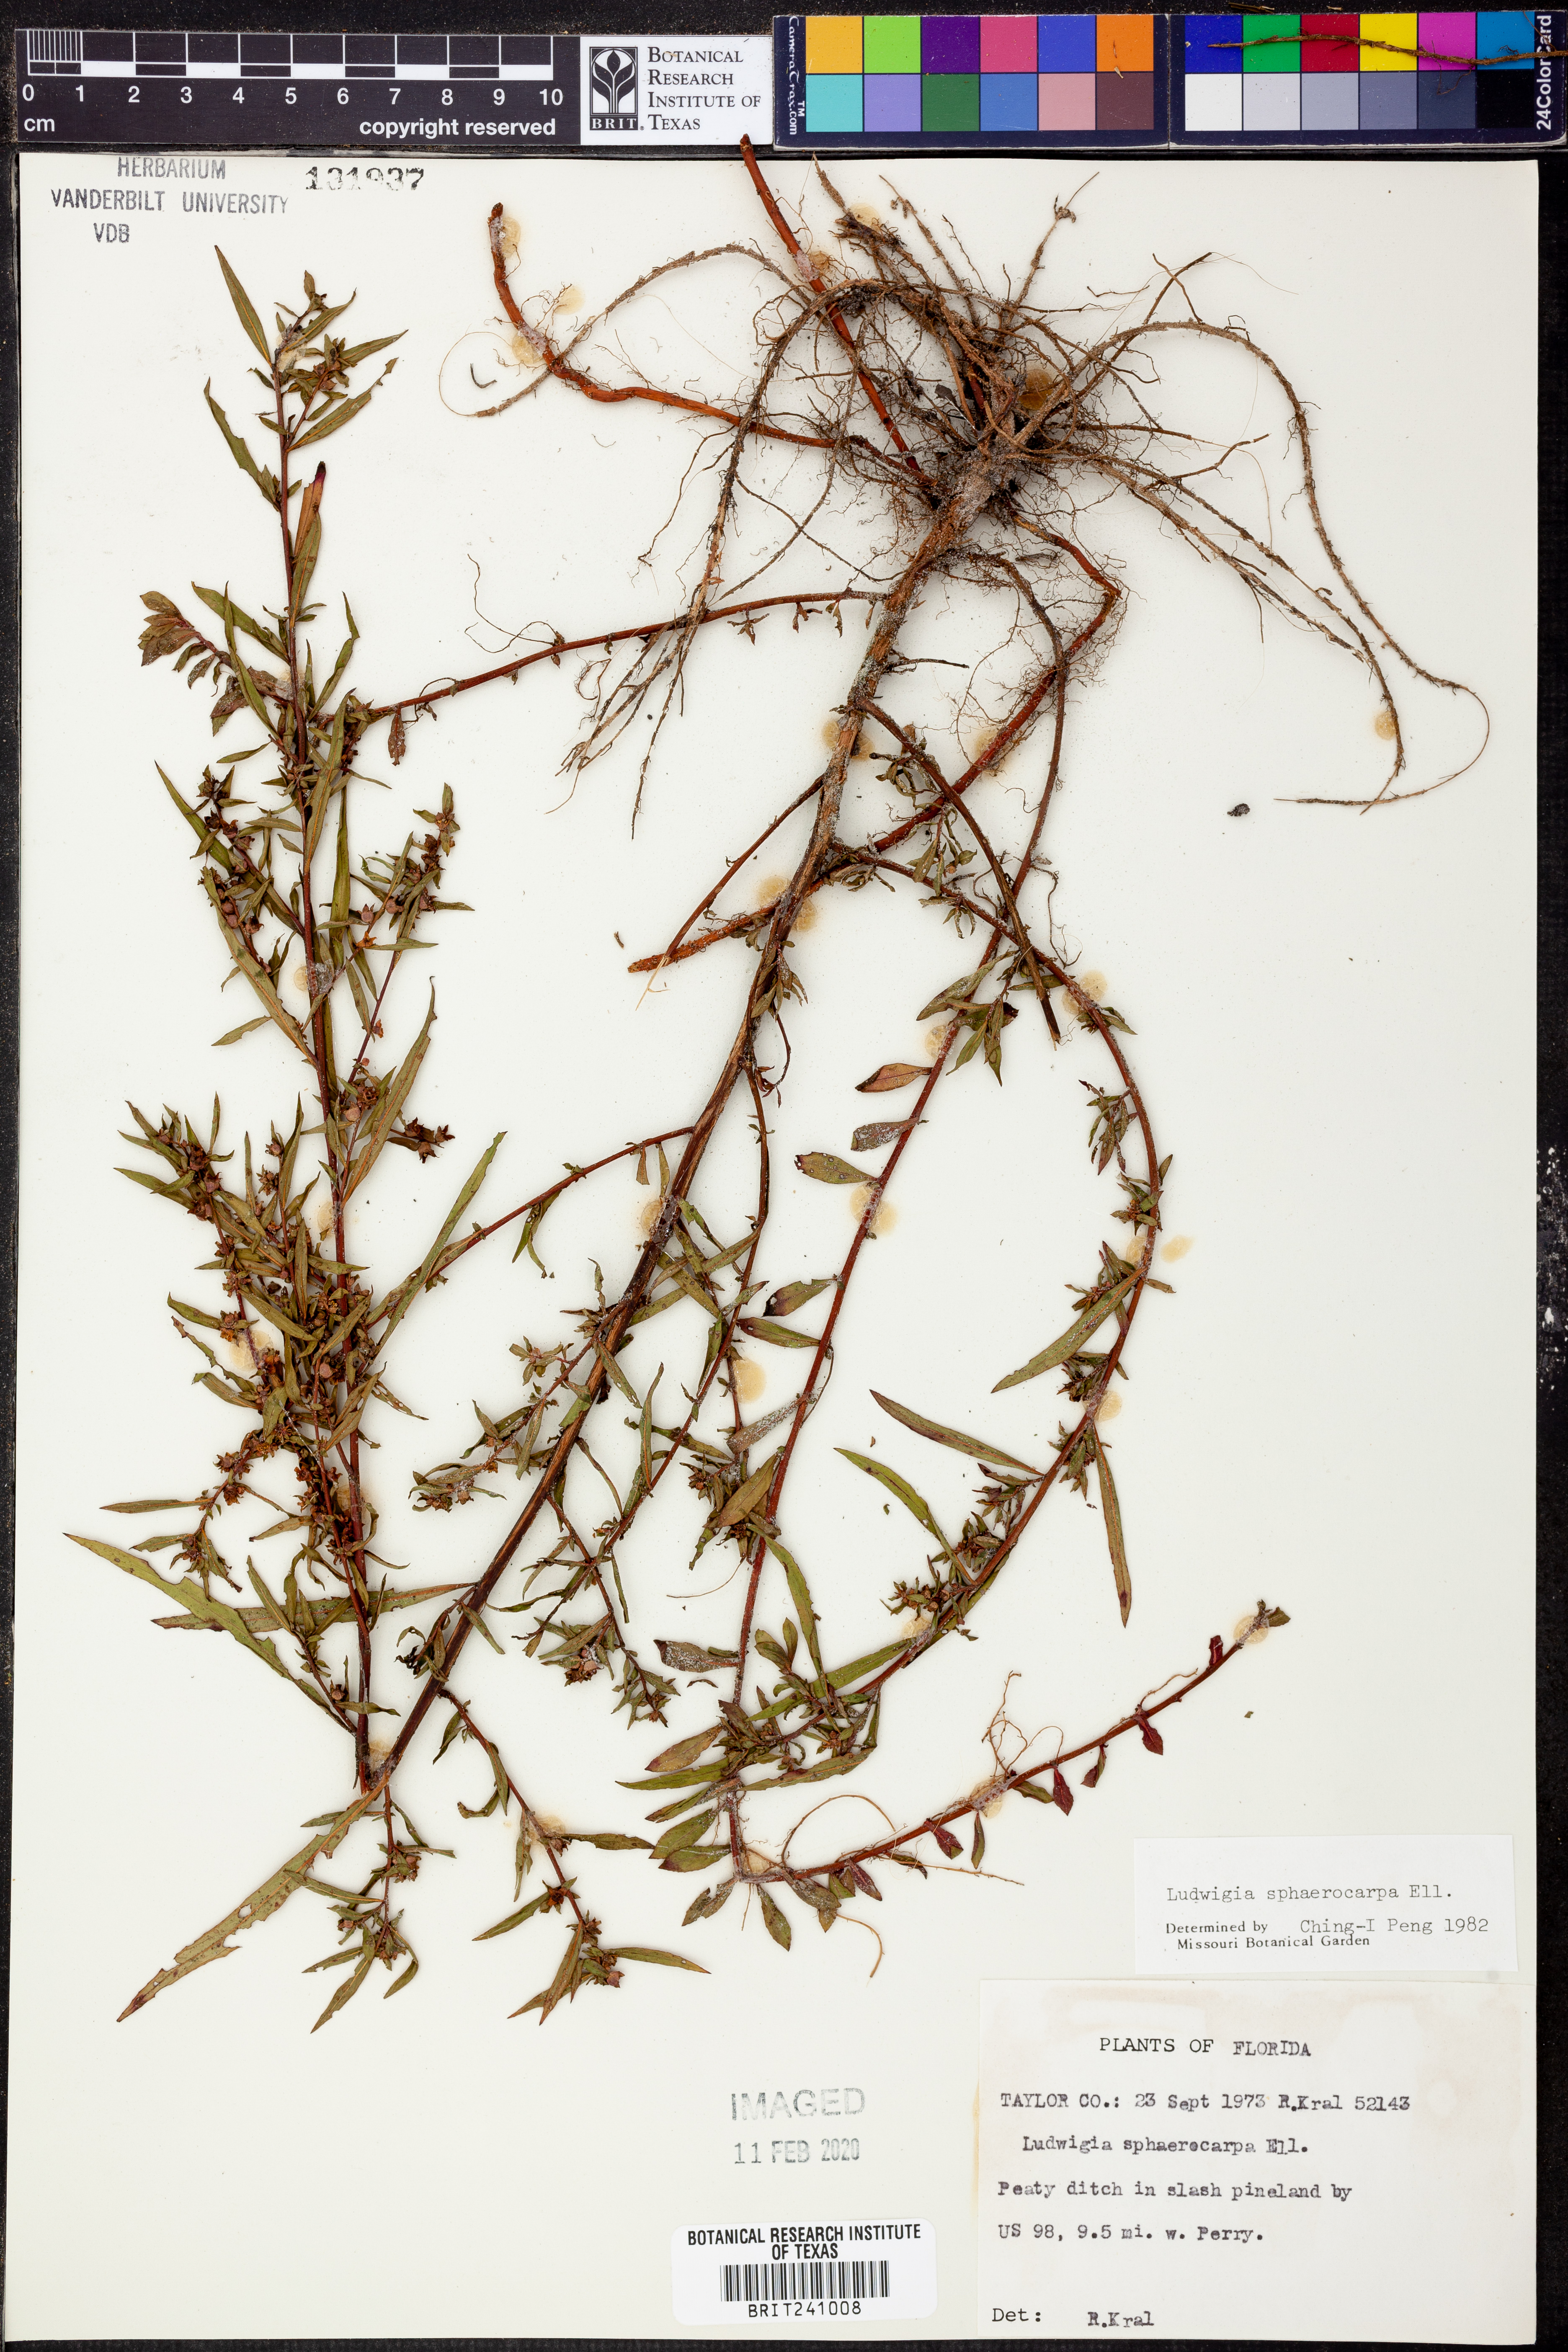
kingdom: Plantae
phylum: Tracheophyta
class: Magnoliopsida
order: Myrtales
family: Onagraceae
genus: Ludwigia
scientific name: Ludwigia sphaerocarpa
